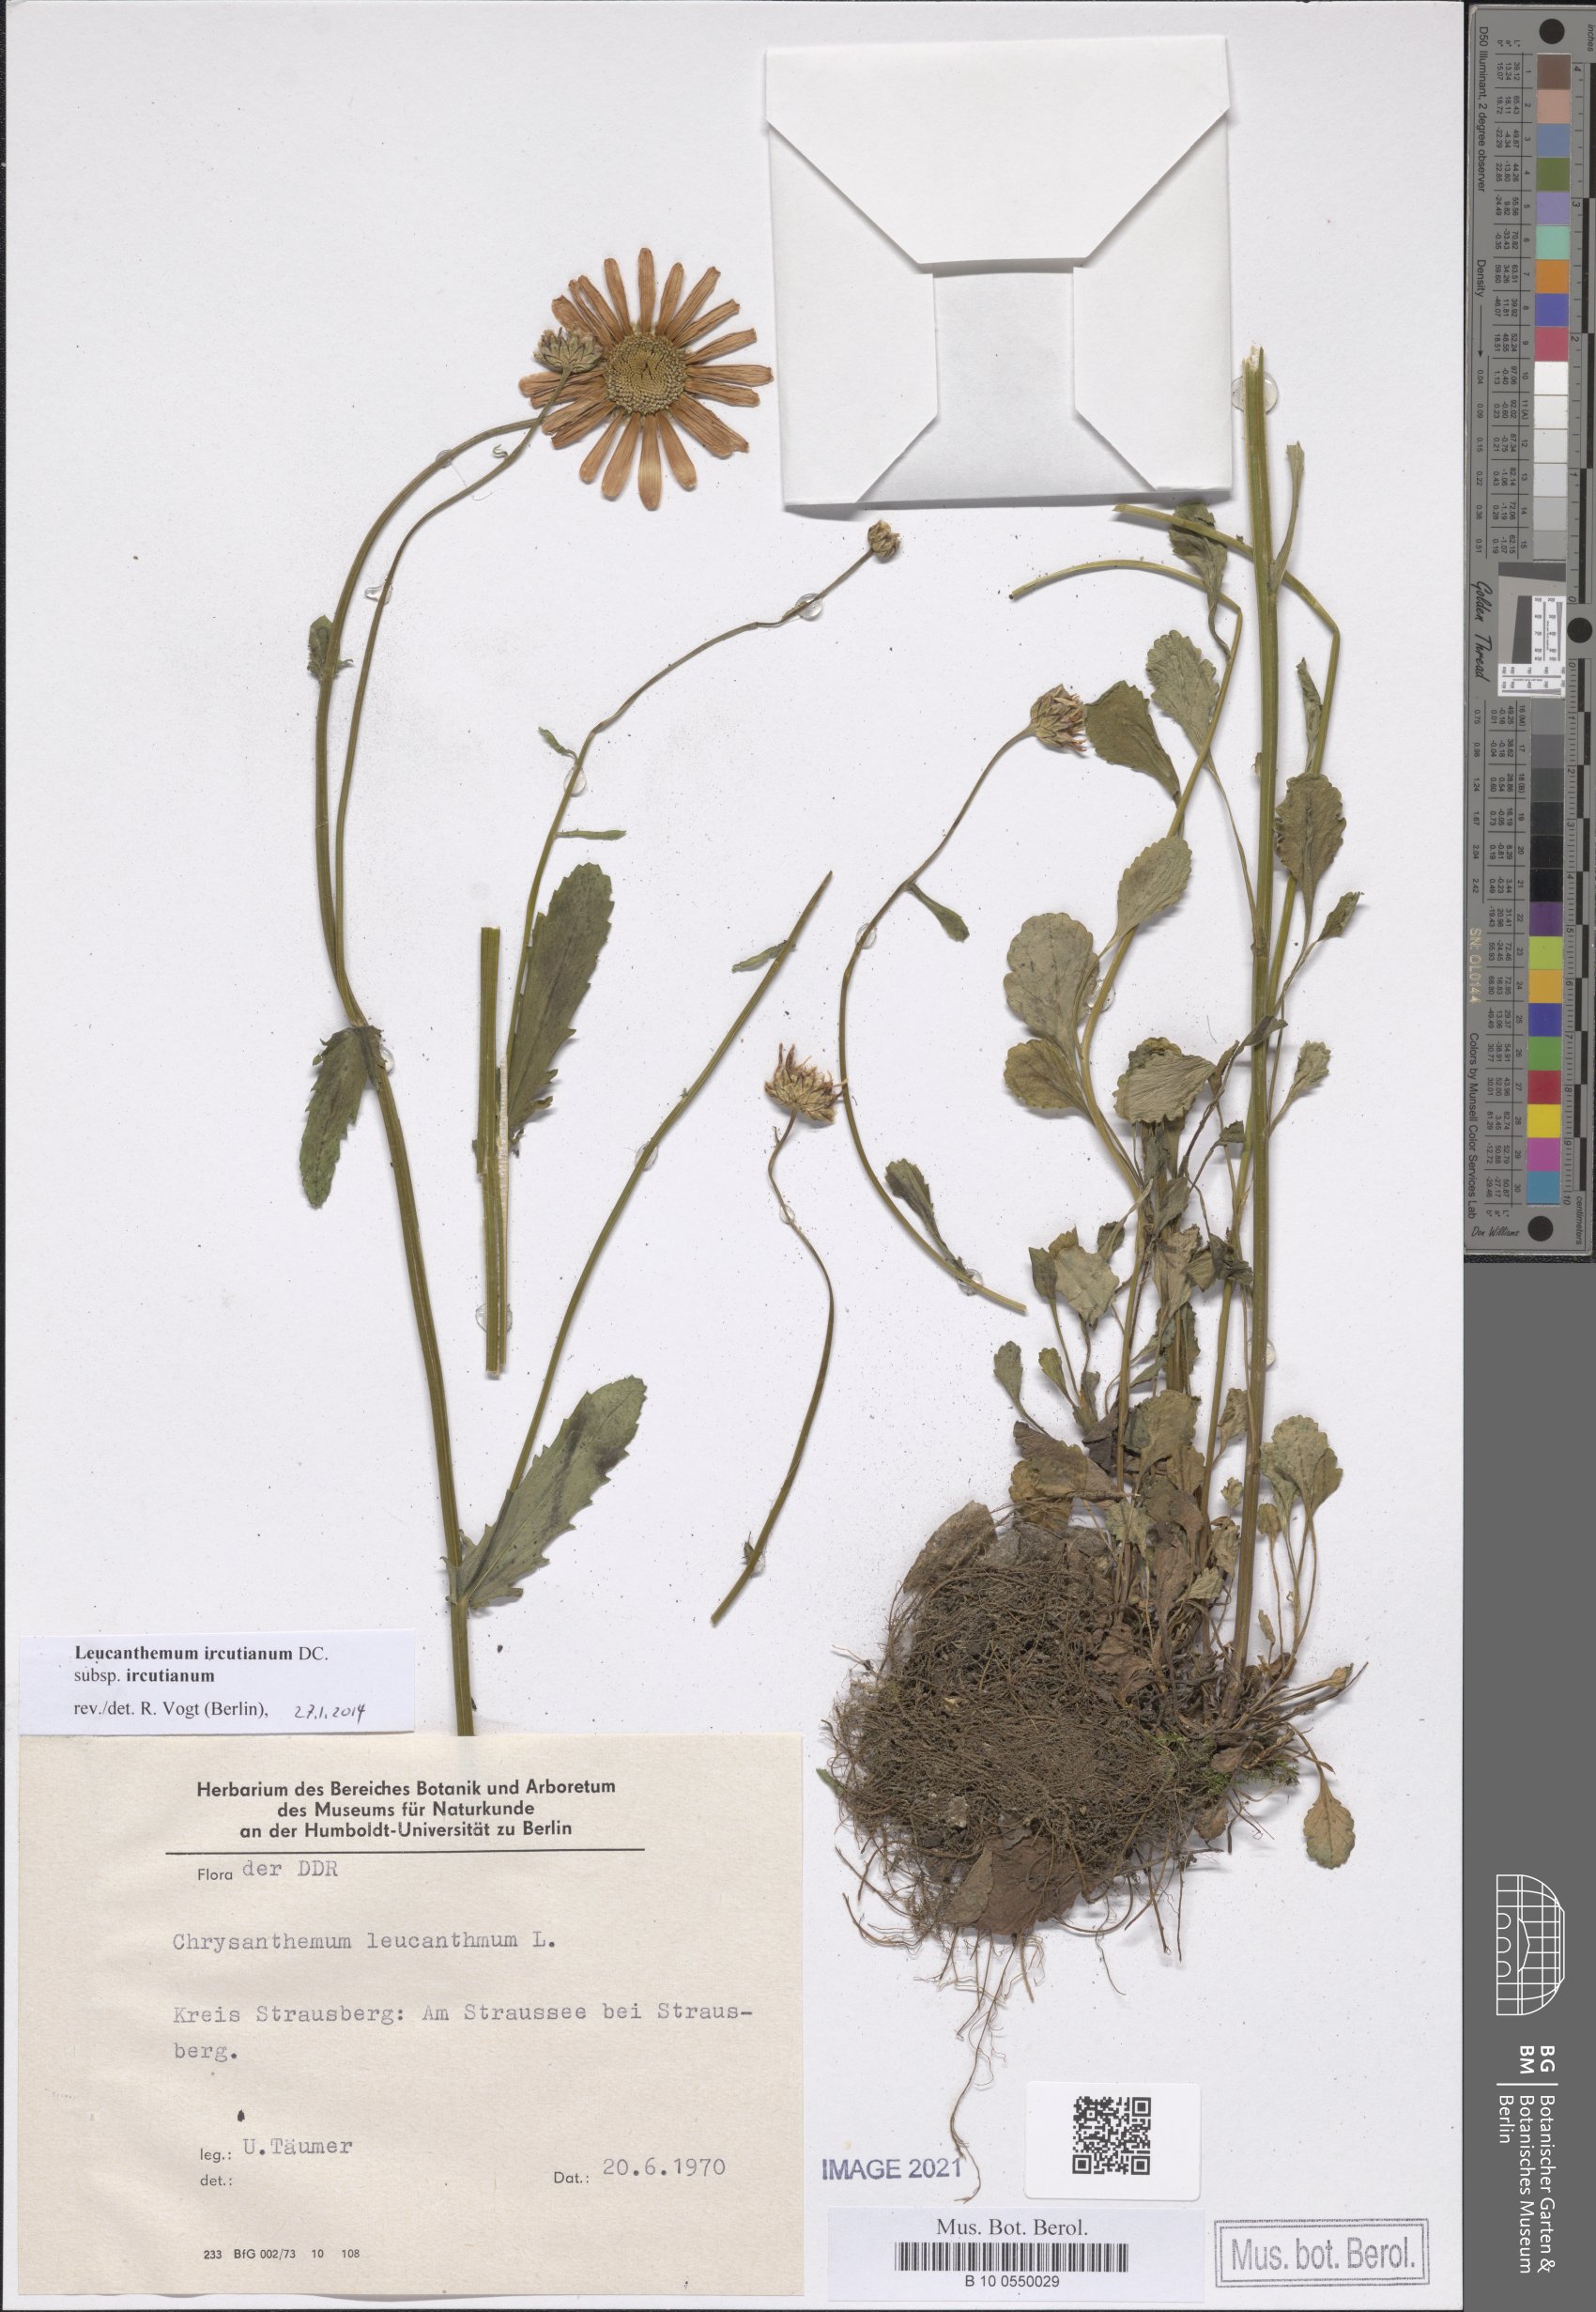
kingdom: Plantae
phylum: Tracheophyta
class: Magnoliopsida
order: Asterales
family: Asteraceae
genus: Leucanthemum
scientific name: Leucanthemum ircutianum
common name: Daisy
